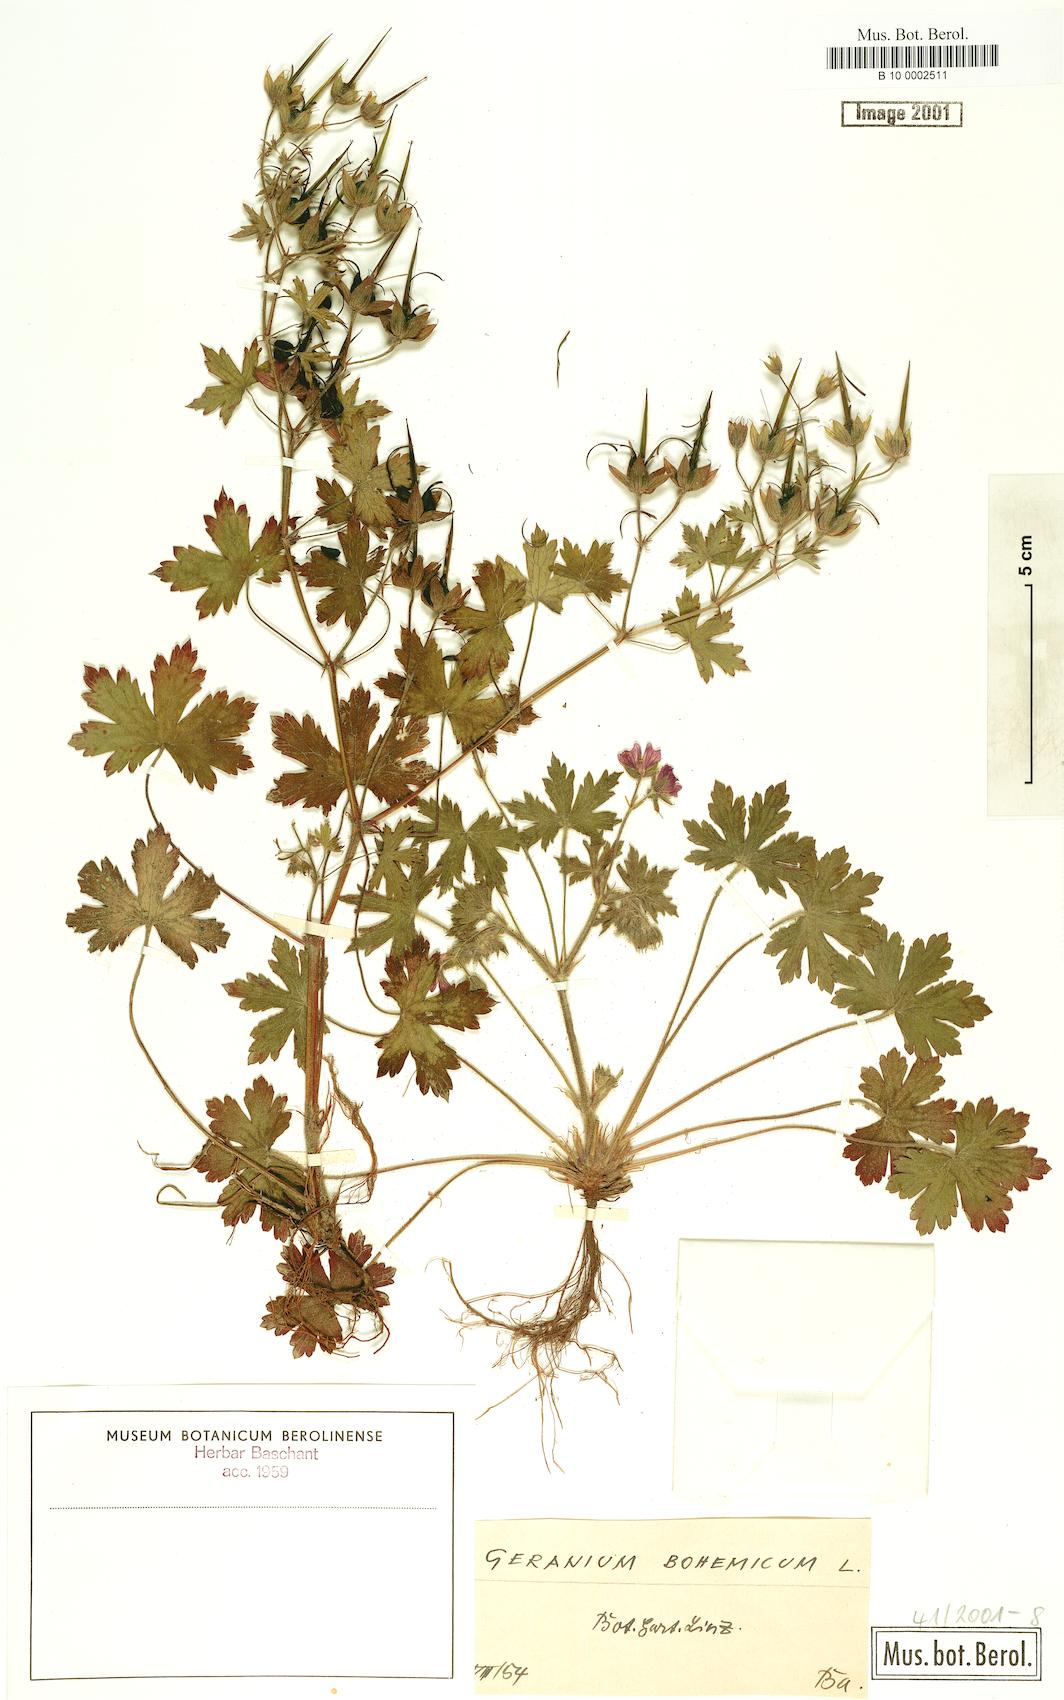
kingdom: Plantae
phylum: Tracheophyta
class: Magnoliopsida
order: Geraniales
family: Geraniaceae
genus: Geranium
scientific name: Geranium bohemicum
